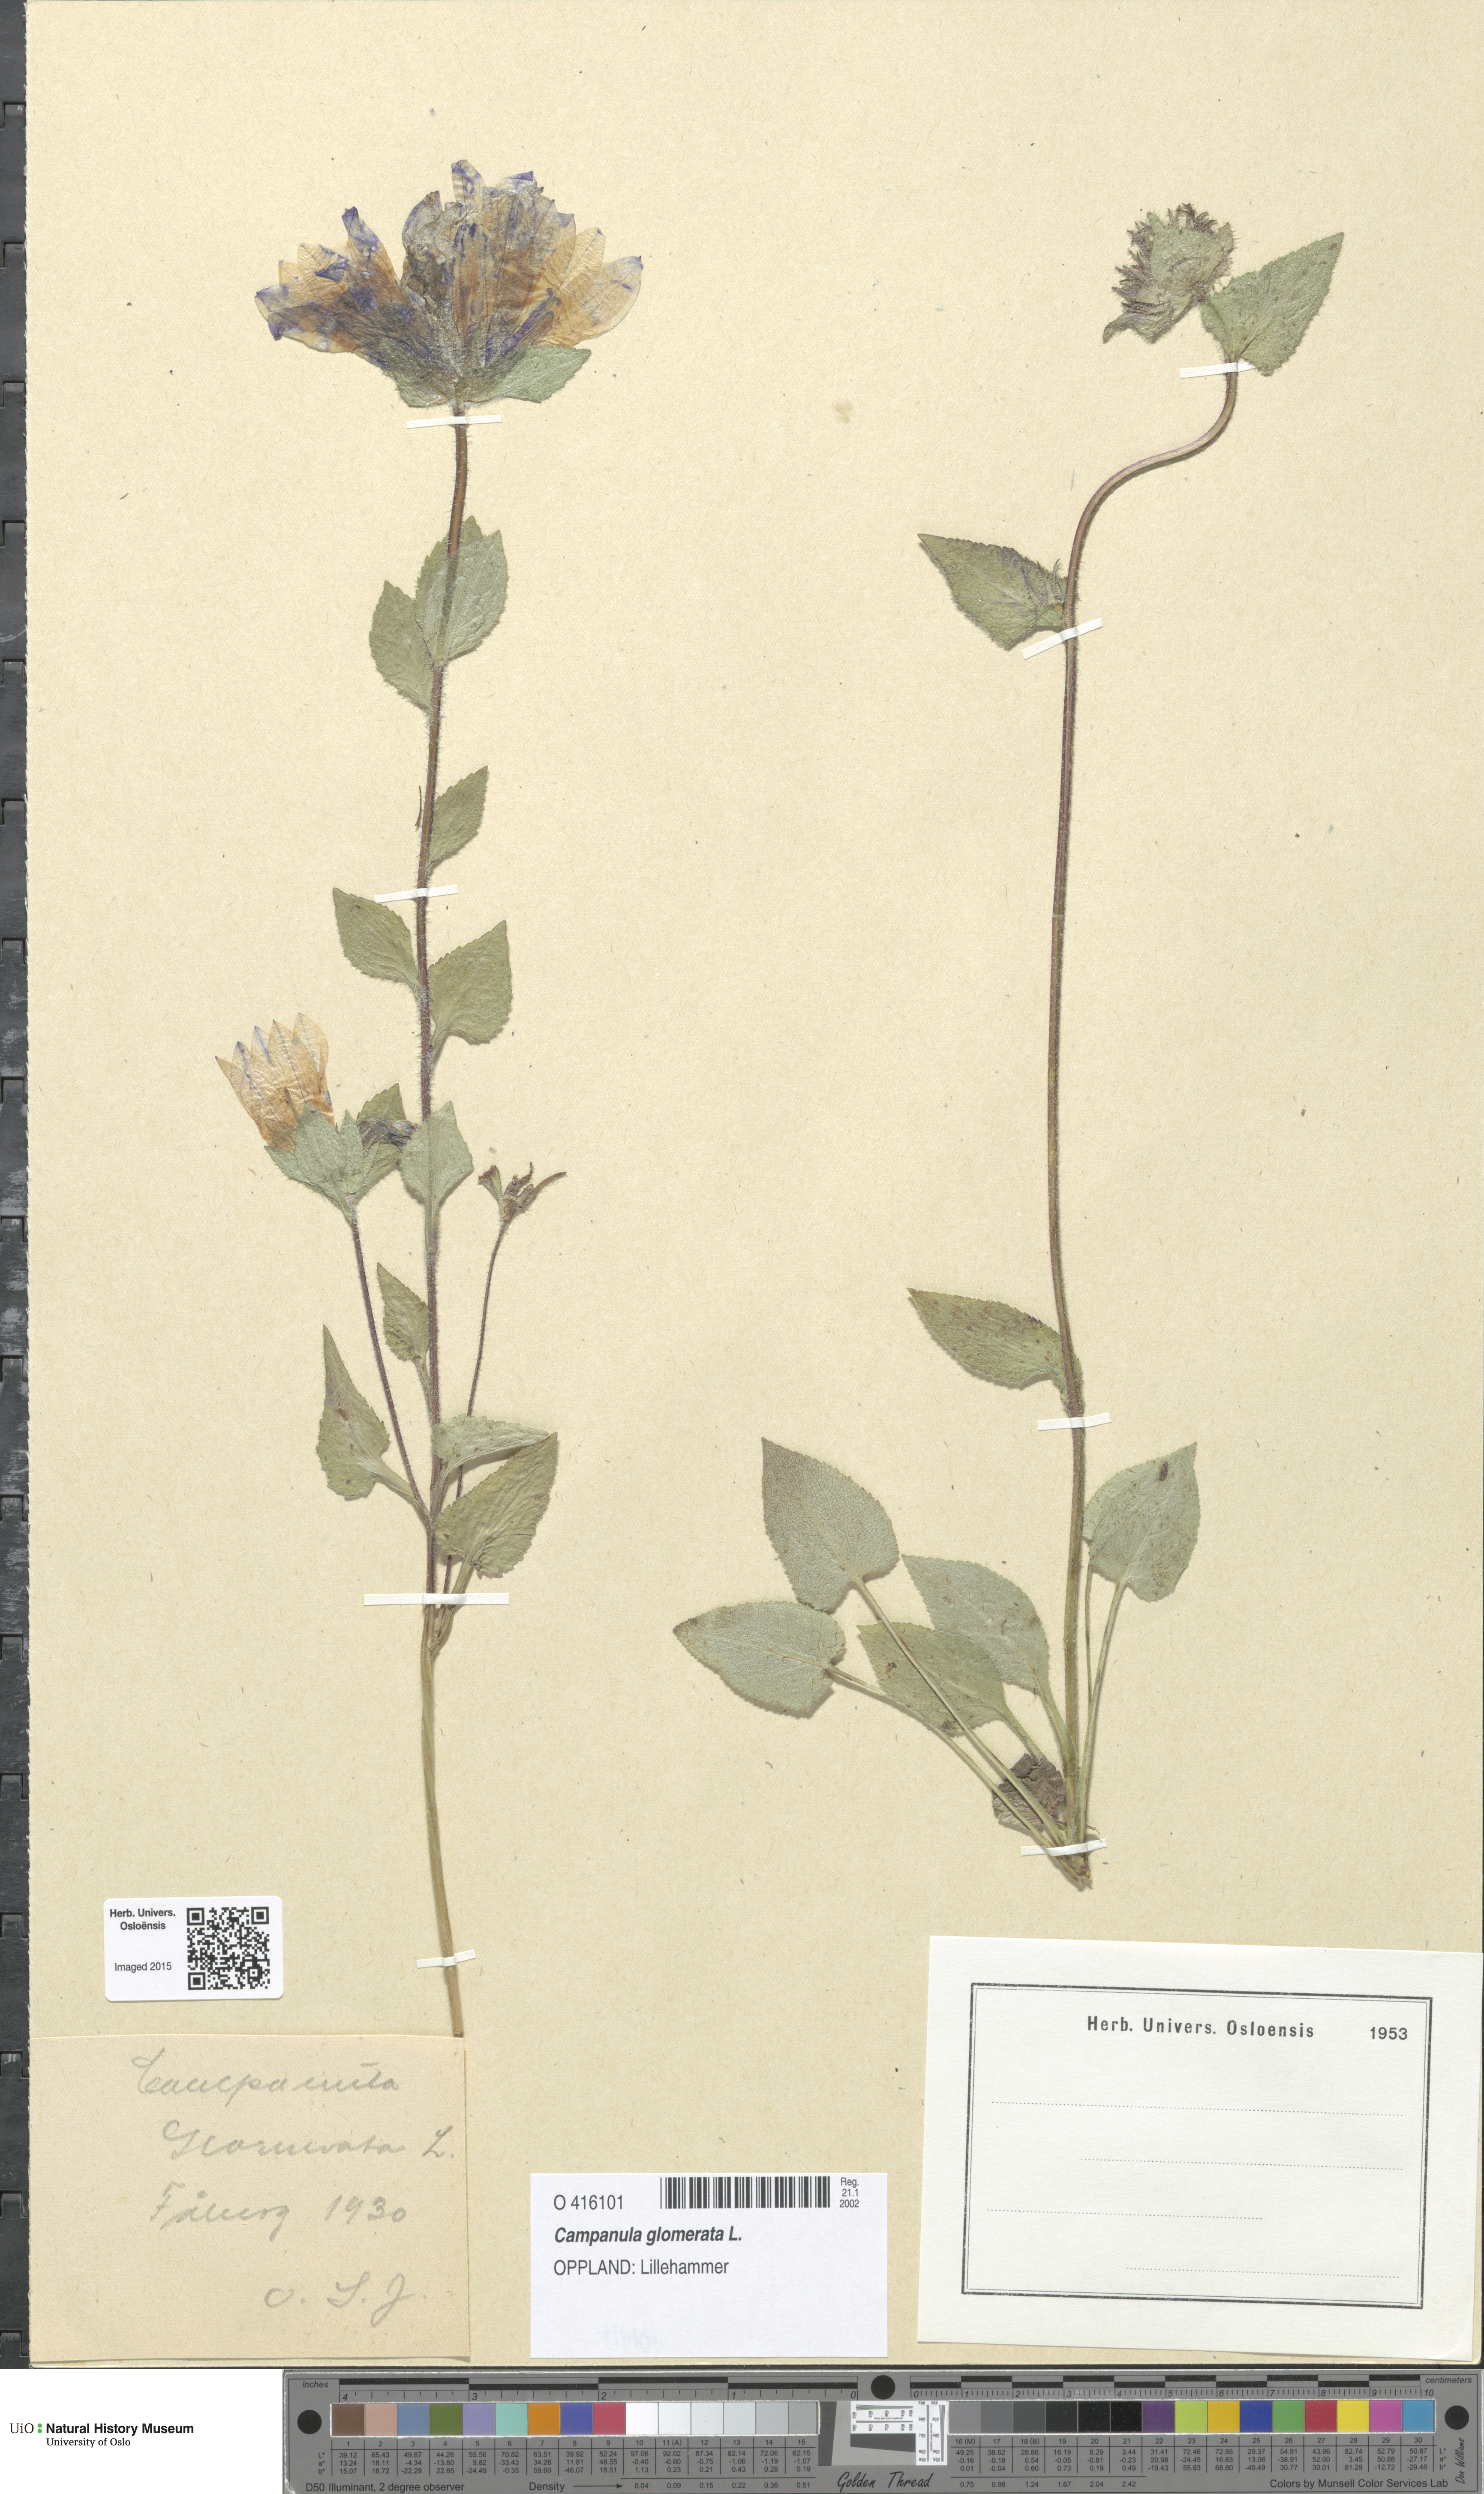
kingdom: Plantae
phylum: Tracheophyta
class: Magnoliopsida
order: Asterales
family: Campanulaceae
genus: Campanula
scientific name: Campanula glomerata
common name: Clustered bellflower
